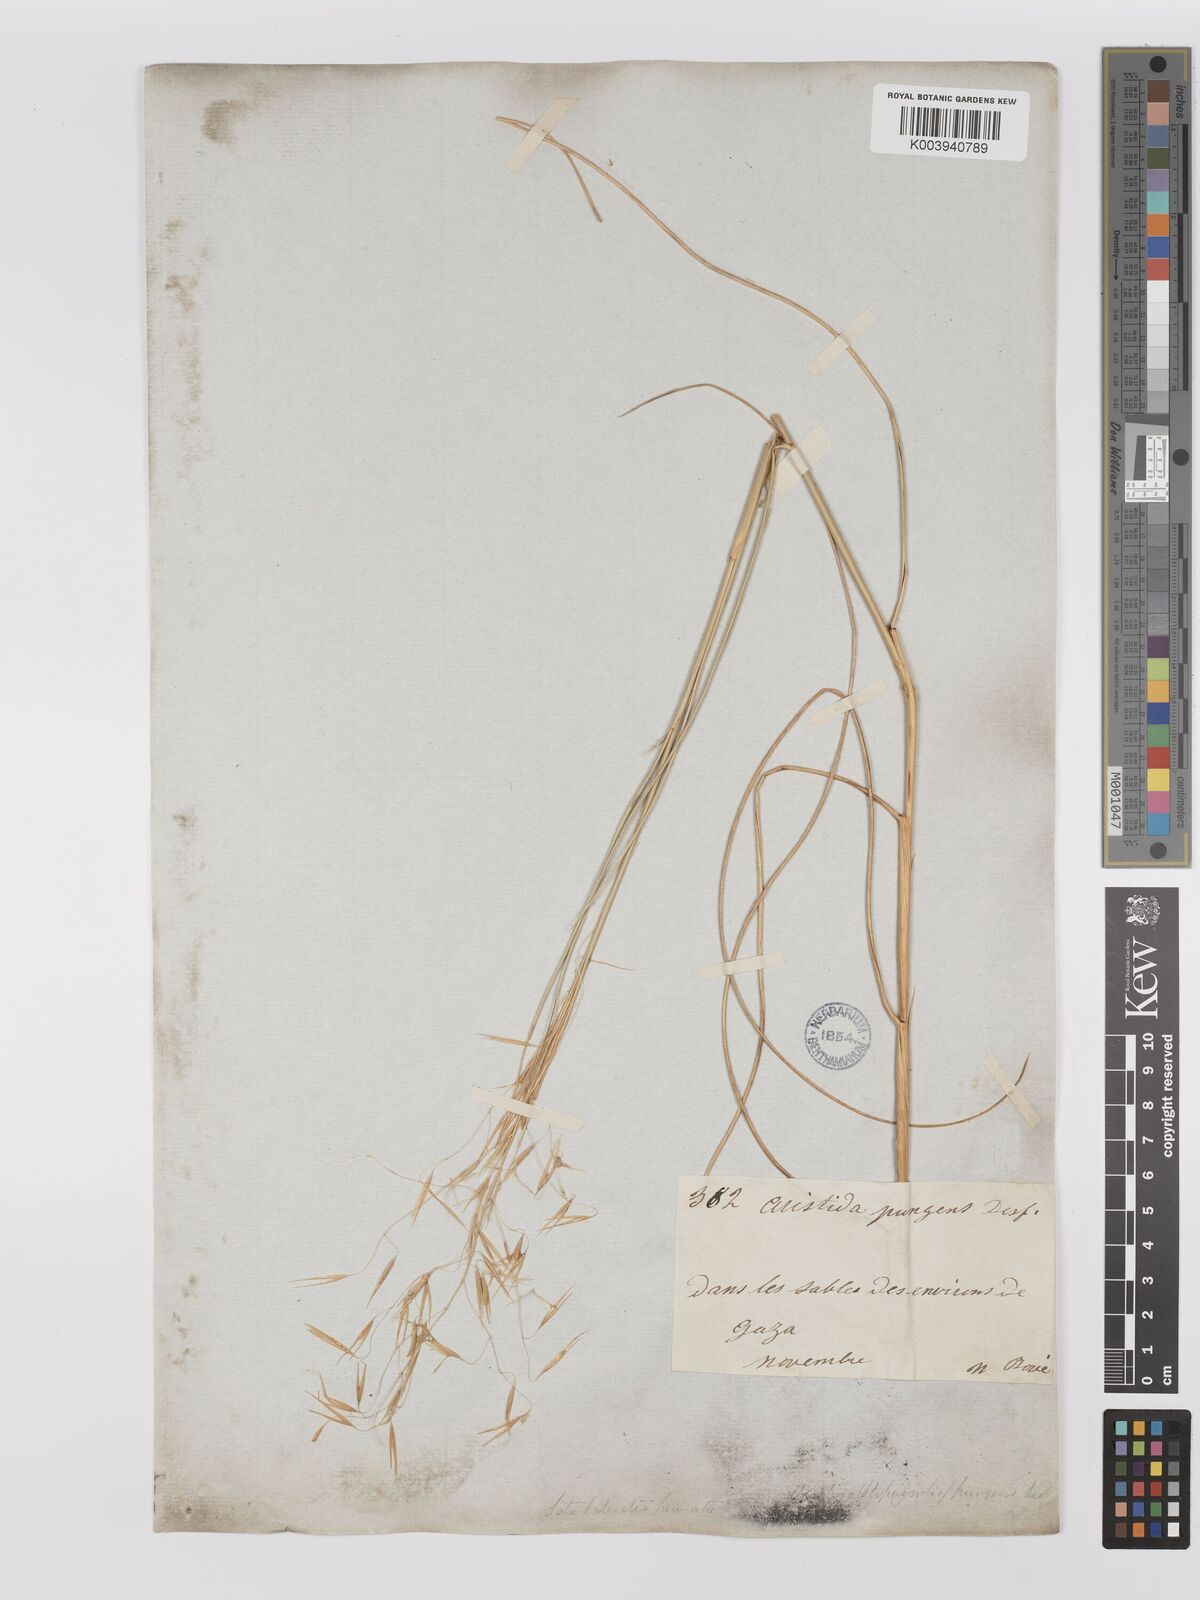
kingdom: Plantae
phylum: Tracheophyta
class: Liliopsida
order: Poales
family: Poaceae
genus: Stipagrostis
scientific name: Stipagrostis scoparia
